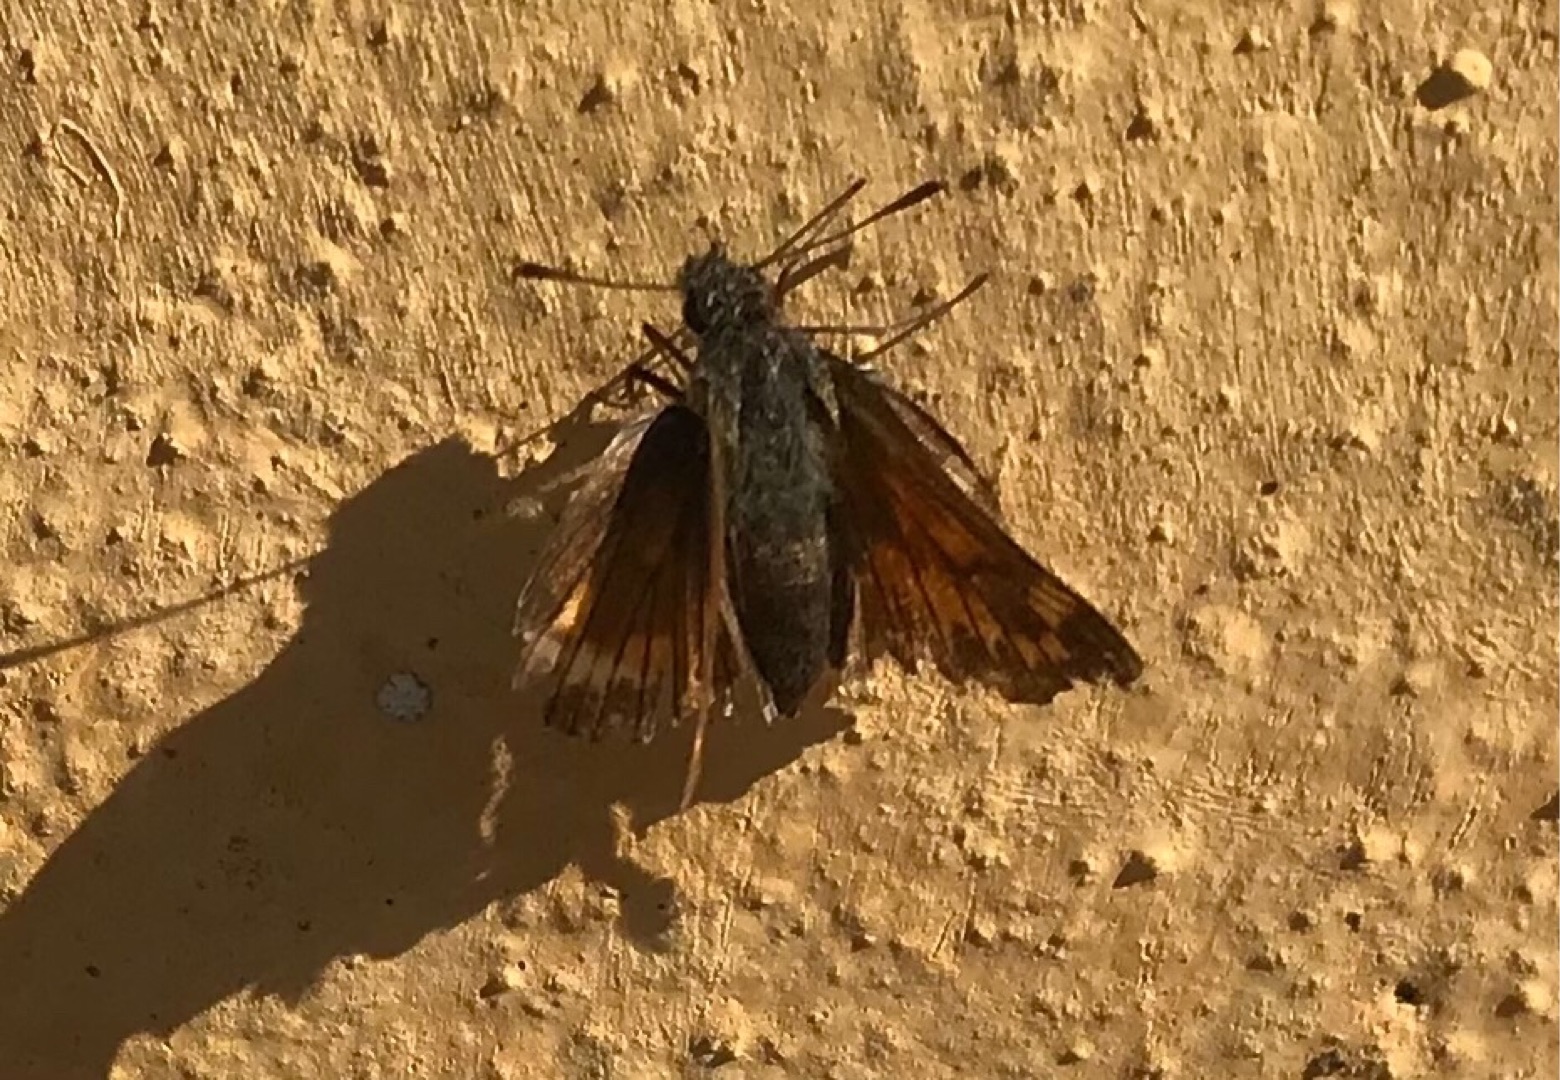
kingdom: Animalia
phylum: Arthropoda
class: Insecta
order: Lepidoptera
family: Hesperiidae
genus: Ochlodes
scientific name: Ochlodes venata
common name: Stor bredpande
